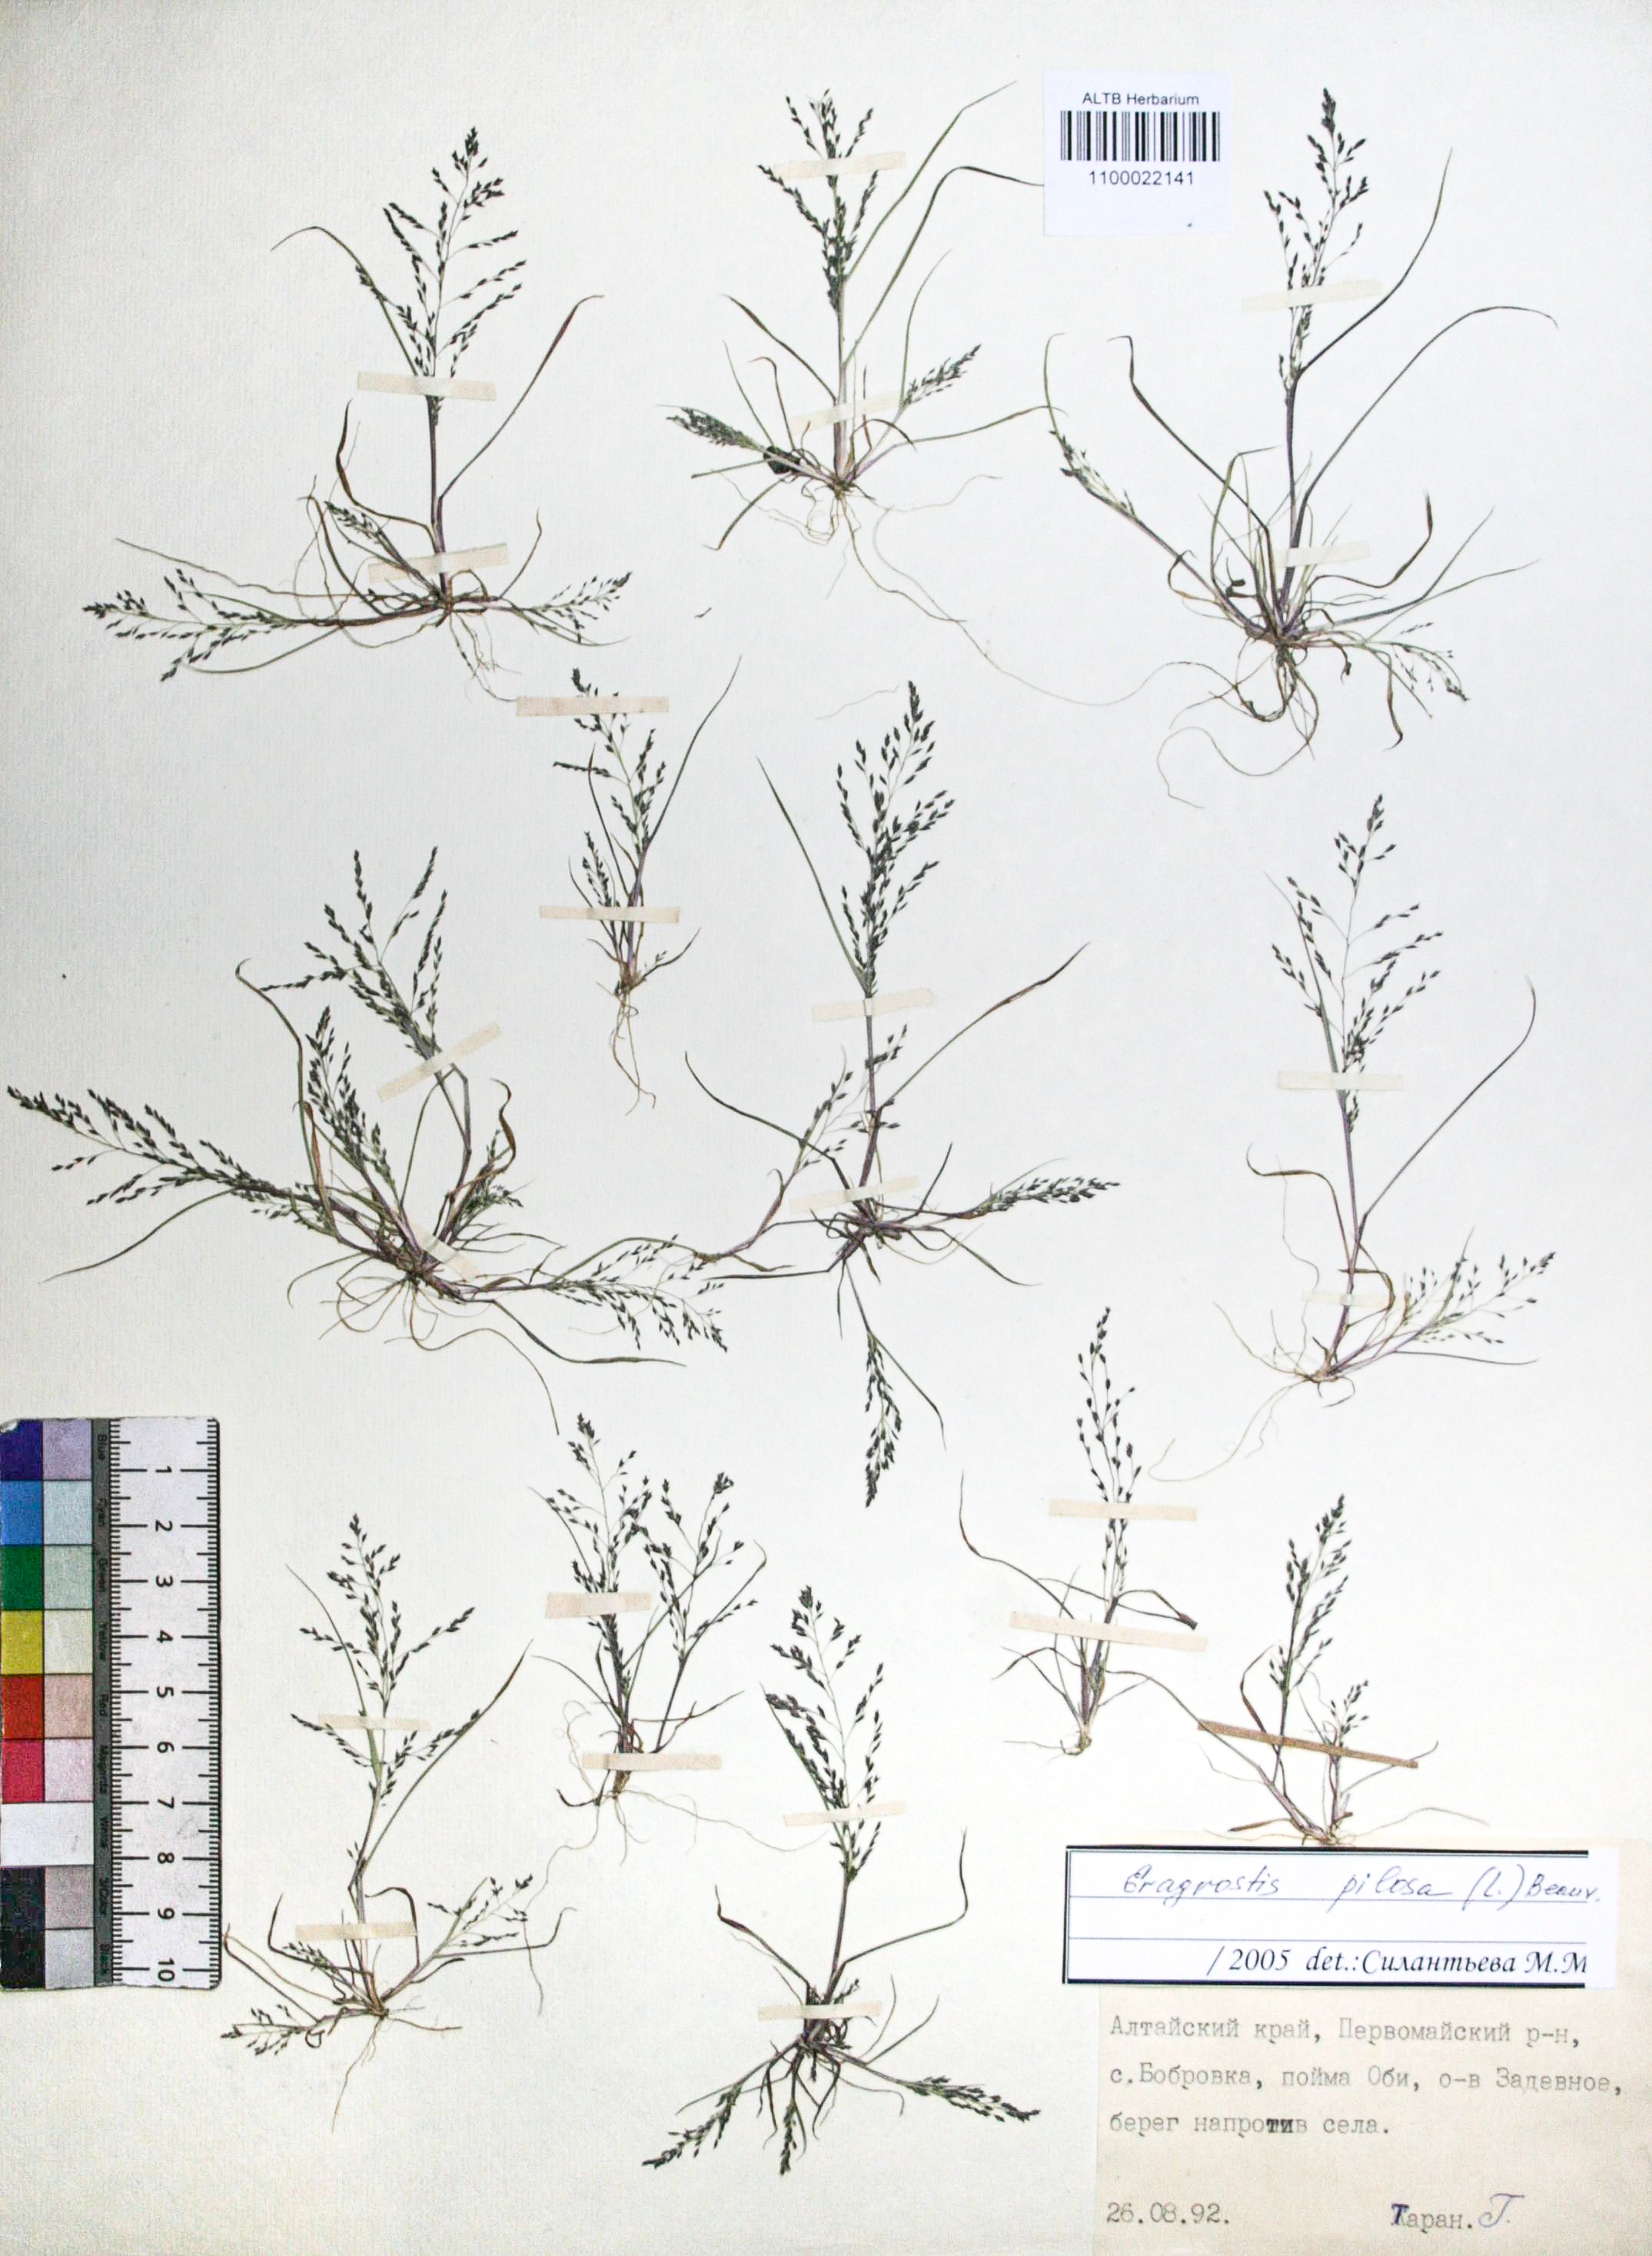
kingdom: Plantae
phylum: Tracheophyta
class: Liliopsida
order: Poales
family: Poaceae
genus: Eragrostis
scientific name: Eragrostis amurensis
